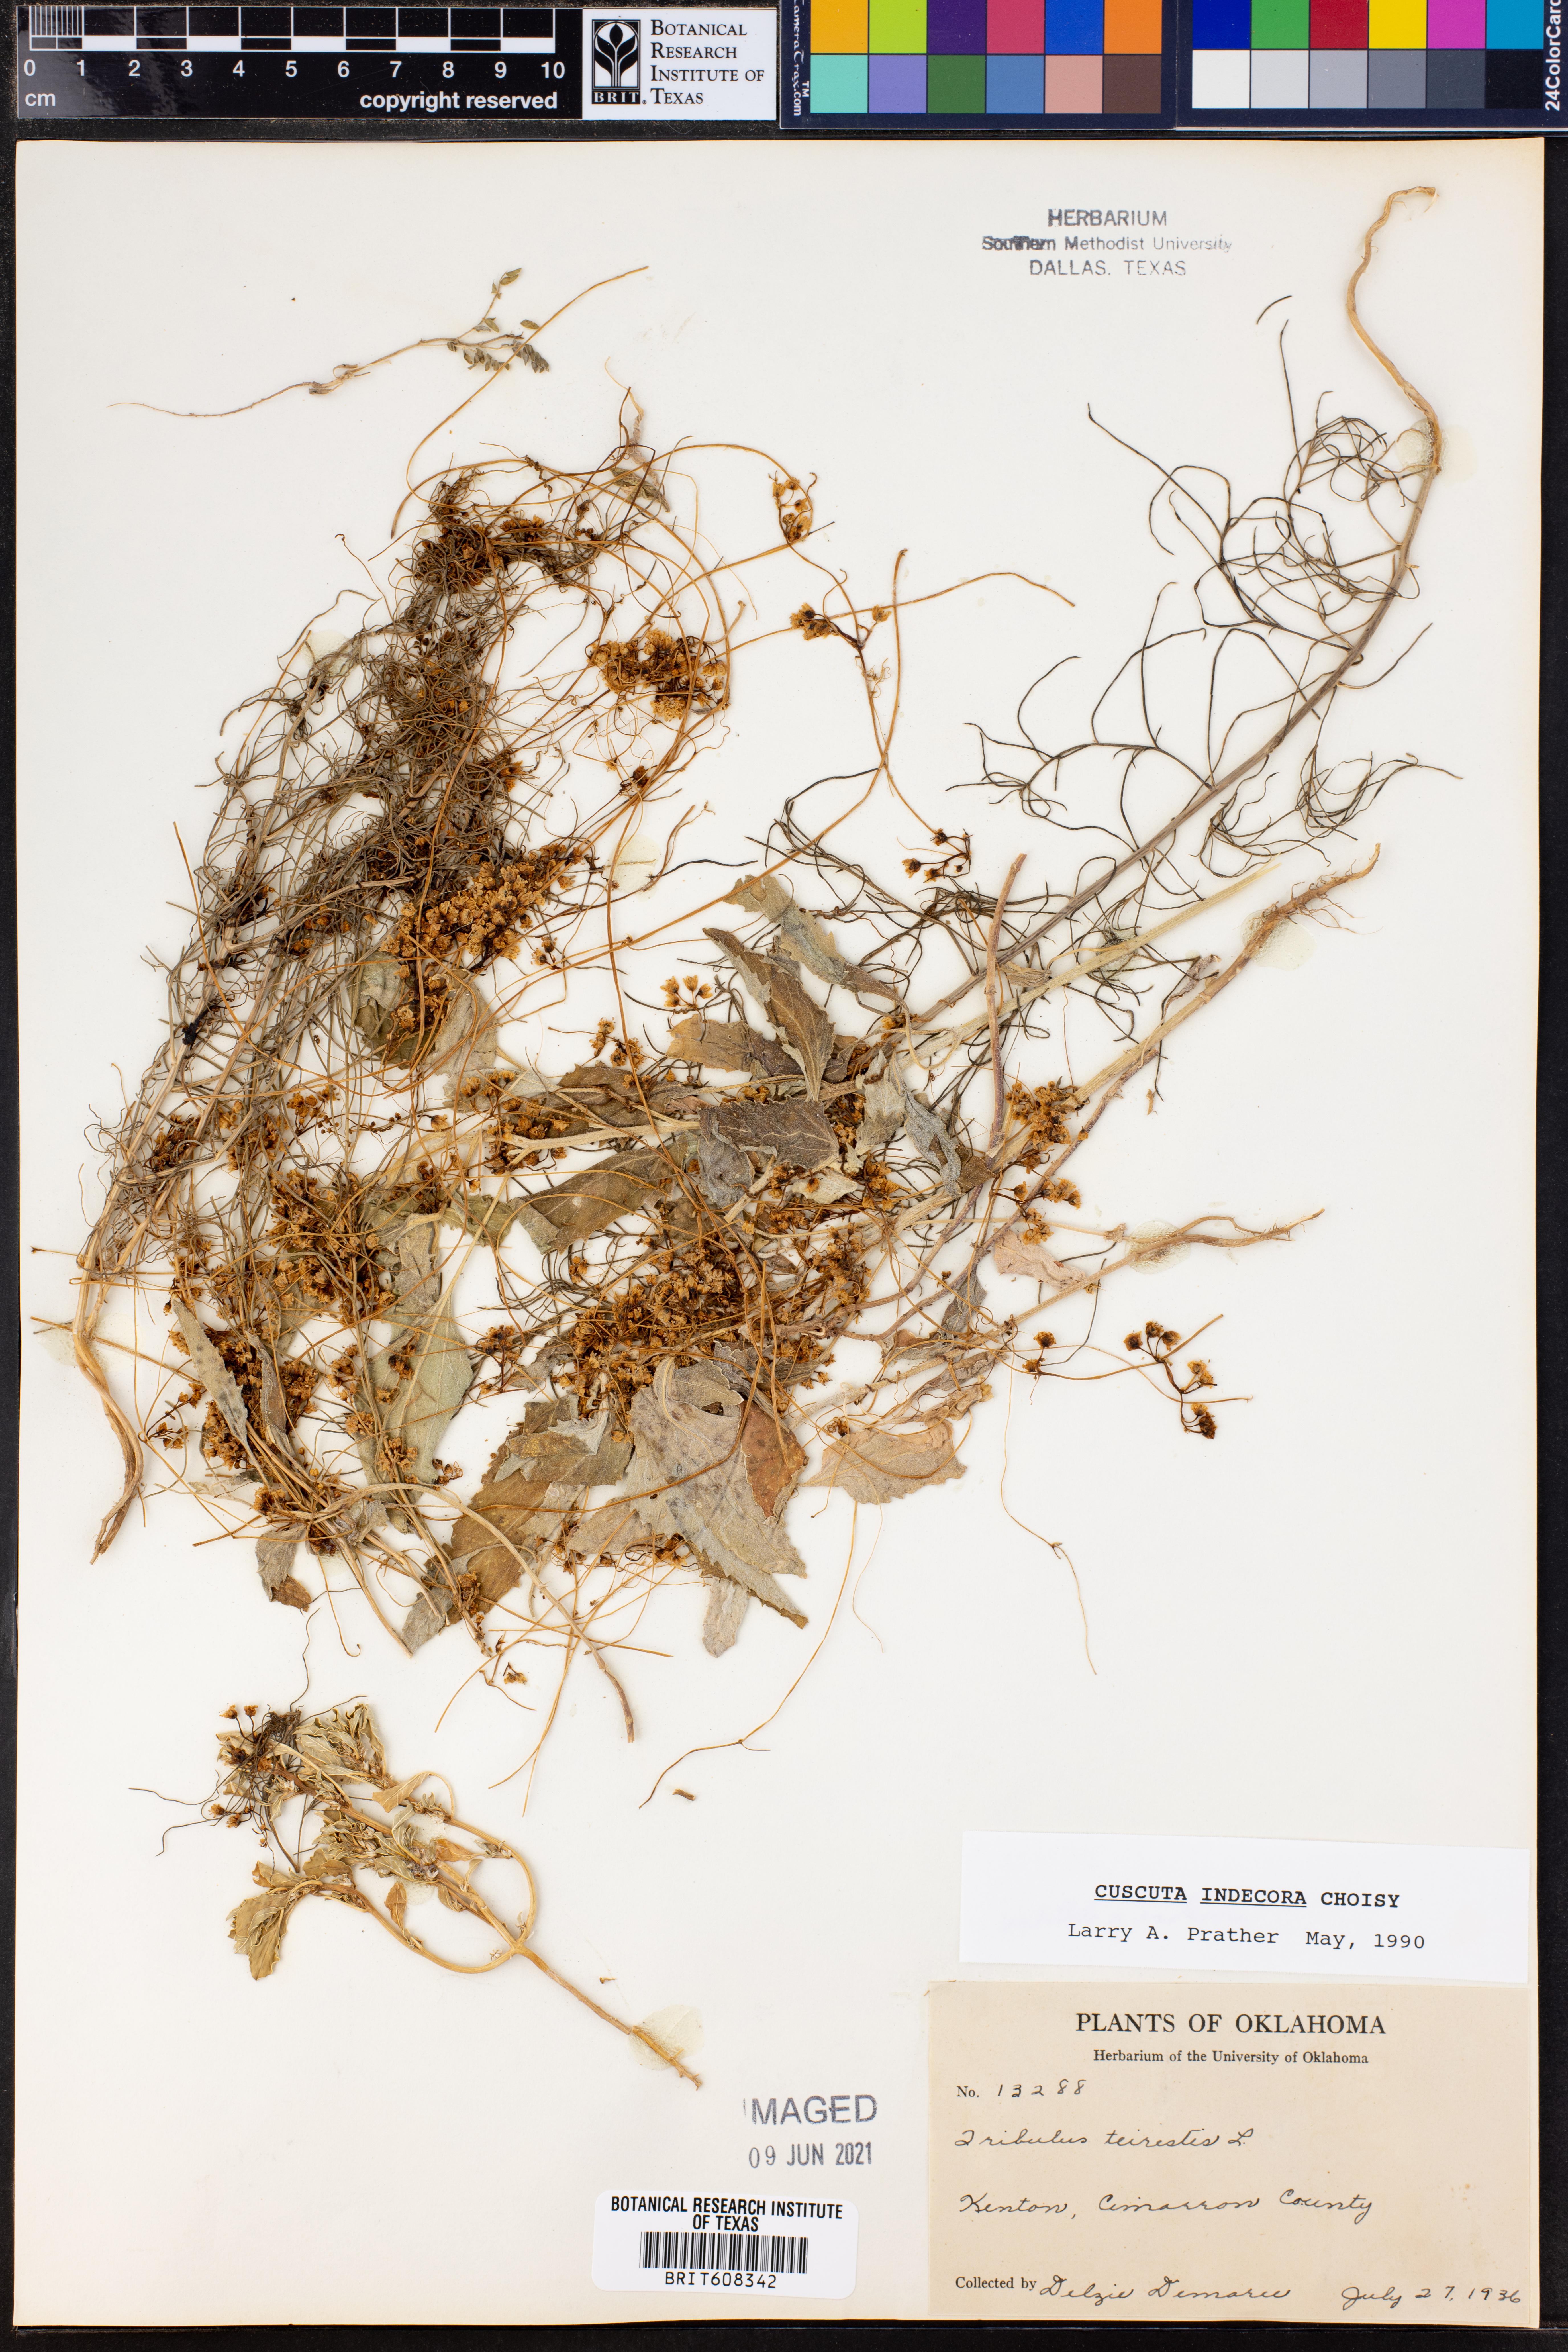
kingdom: Plantae
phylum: Tracheophyta
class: Magnoliopsida
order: Solanales
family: Convolvulaceae
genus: Cuscuta
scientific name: Cuscuta indecora
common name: Large-seed dodder
